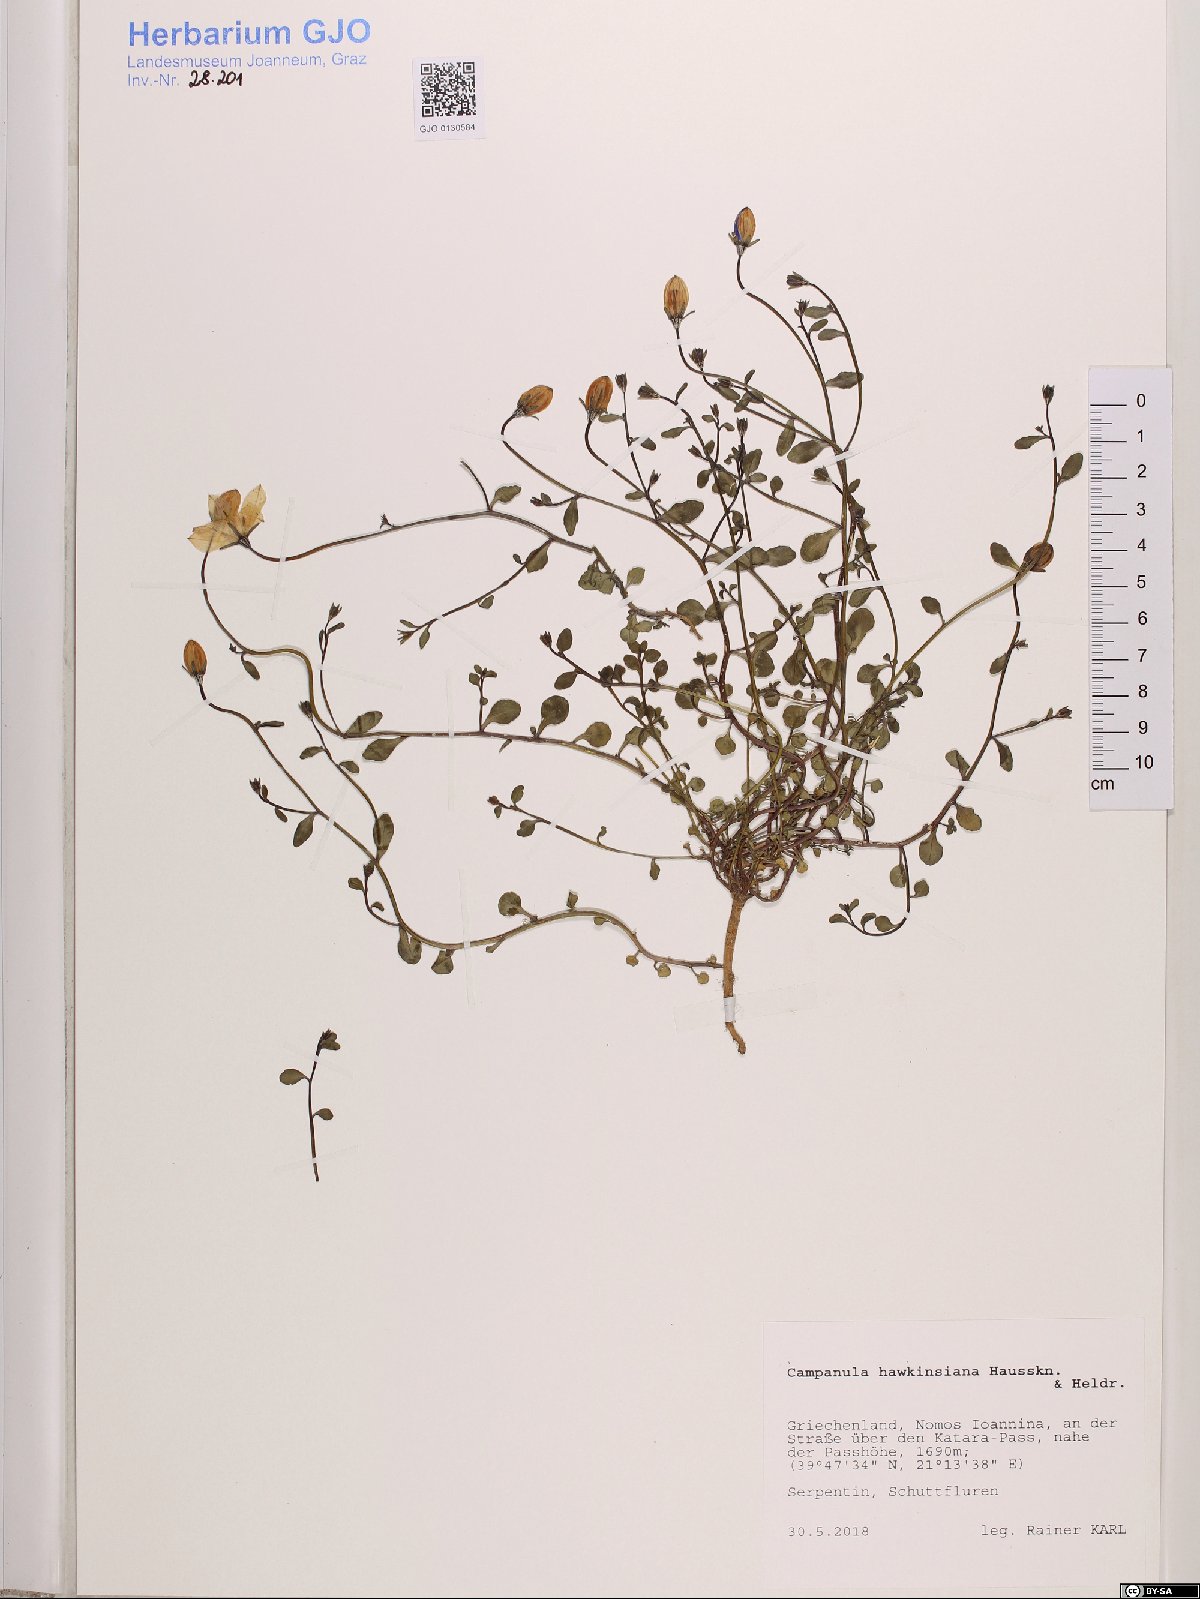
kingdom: Plantae
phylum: Tracheophyta
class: Magnoliopsida
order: Asterales
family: Campanulaceae
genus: Campanula
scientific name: Campanula hawkinsiana
